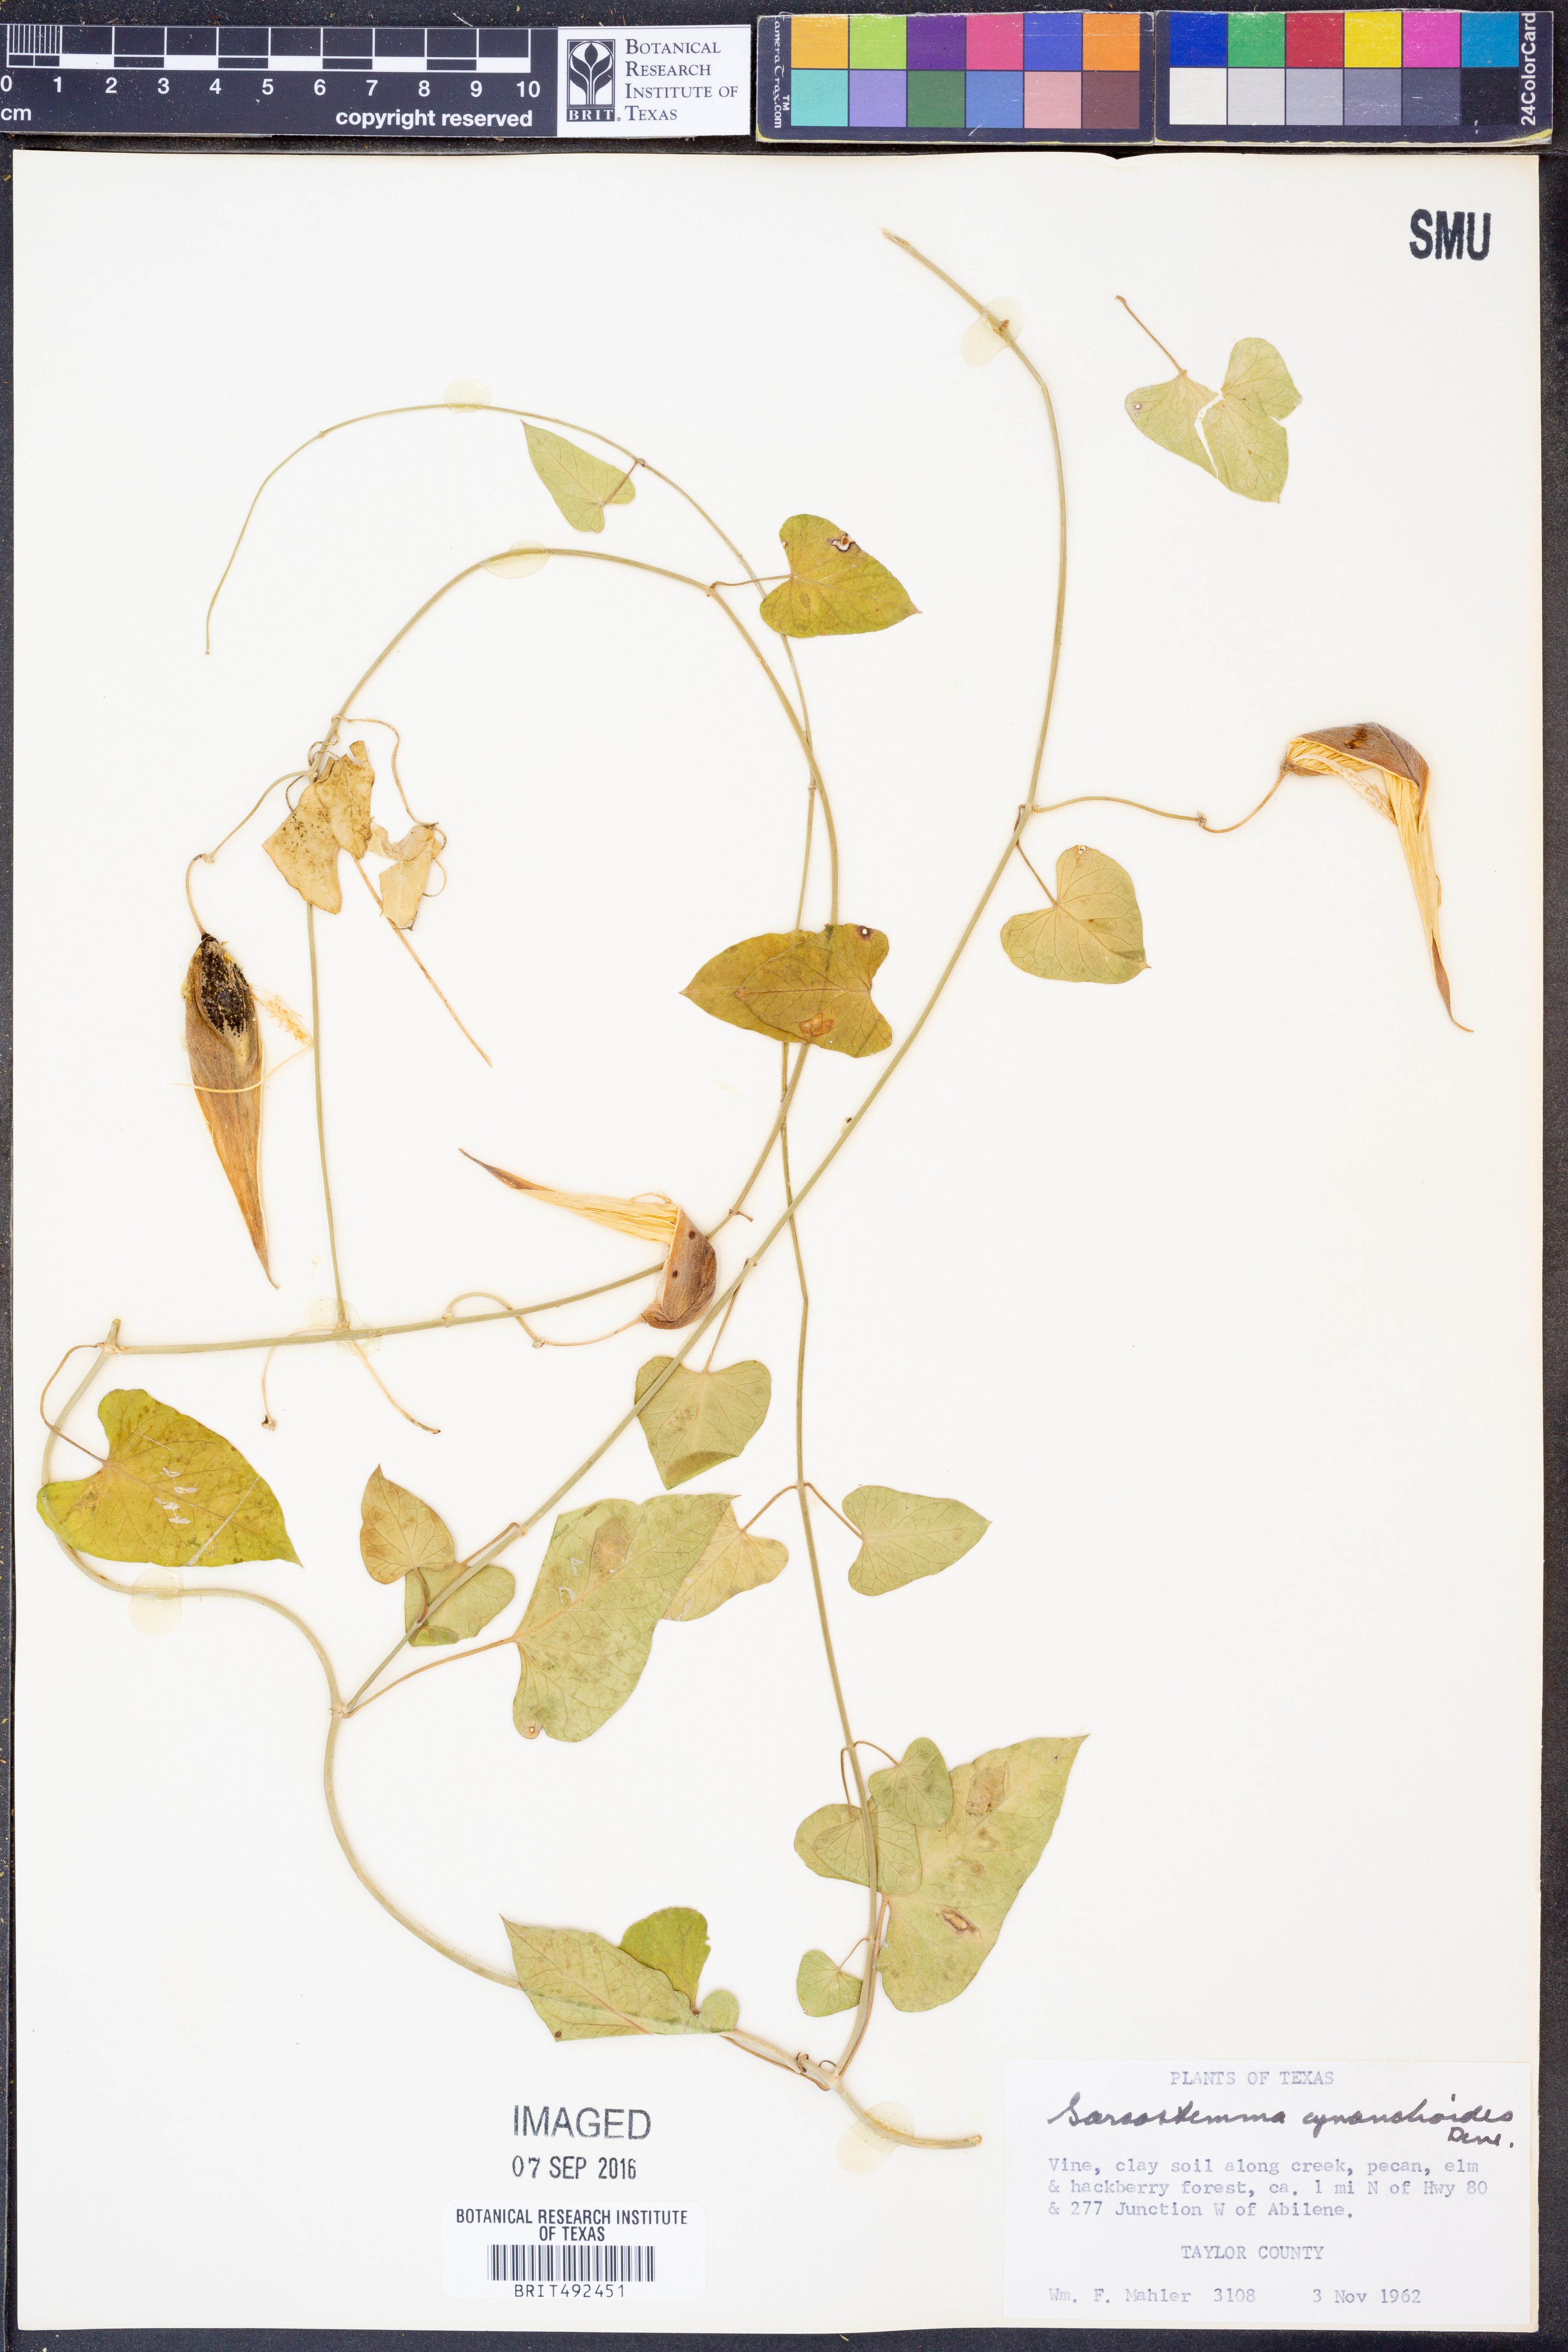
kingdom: Plantae
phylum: Tracheophyta
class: Magnoliopsida
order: Gentianales
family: Apocynaceae
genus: Funastrum
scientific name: Funastrum cynanchoides
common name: Climbing-milkweed
